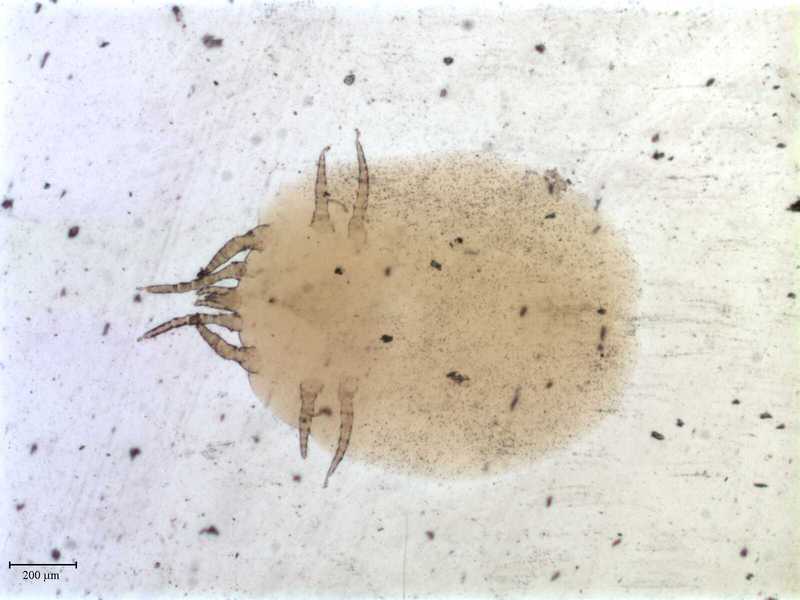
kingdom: Animalia
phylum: Arthropoda
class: Arachnida
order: Mesostigmata
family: Macronyssidae
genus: Chiroptonyssus
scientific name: Chiroptonyssus venezolanus
